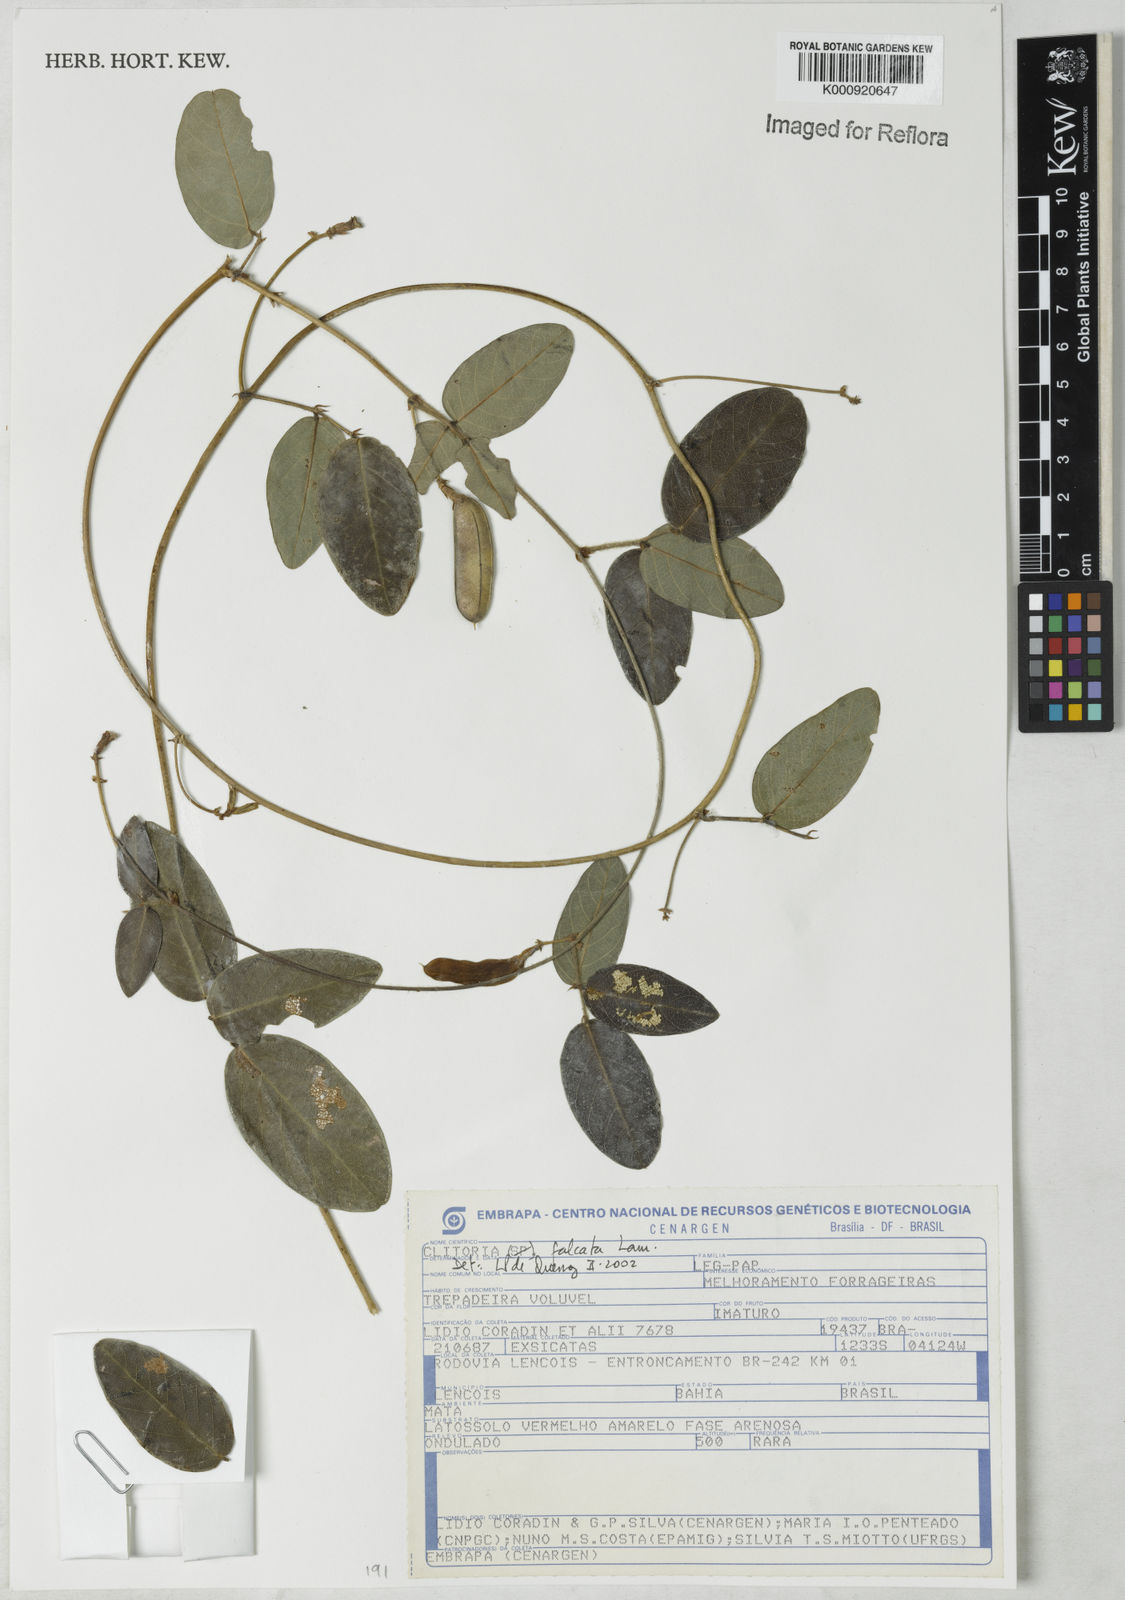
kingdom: Plantae
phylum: Tracheophyta
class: Magnoliopsida
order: Fabales
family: Fabaceae
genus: Clitoria
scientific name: Clitoria falcata
